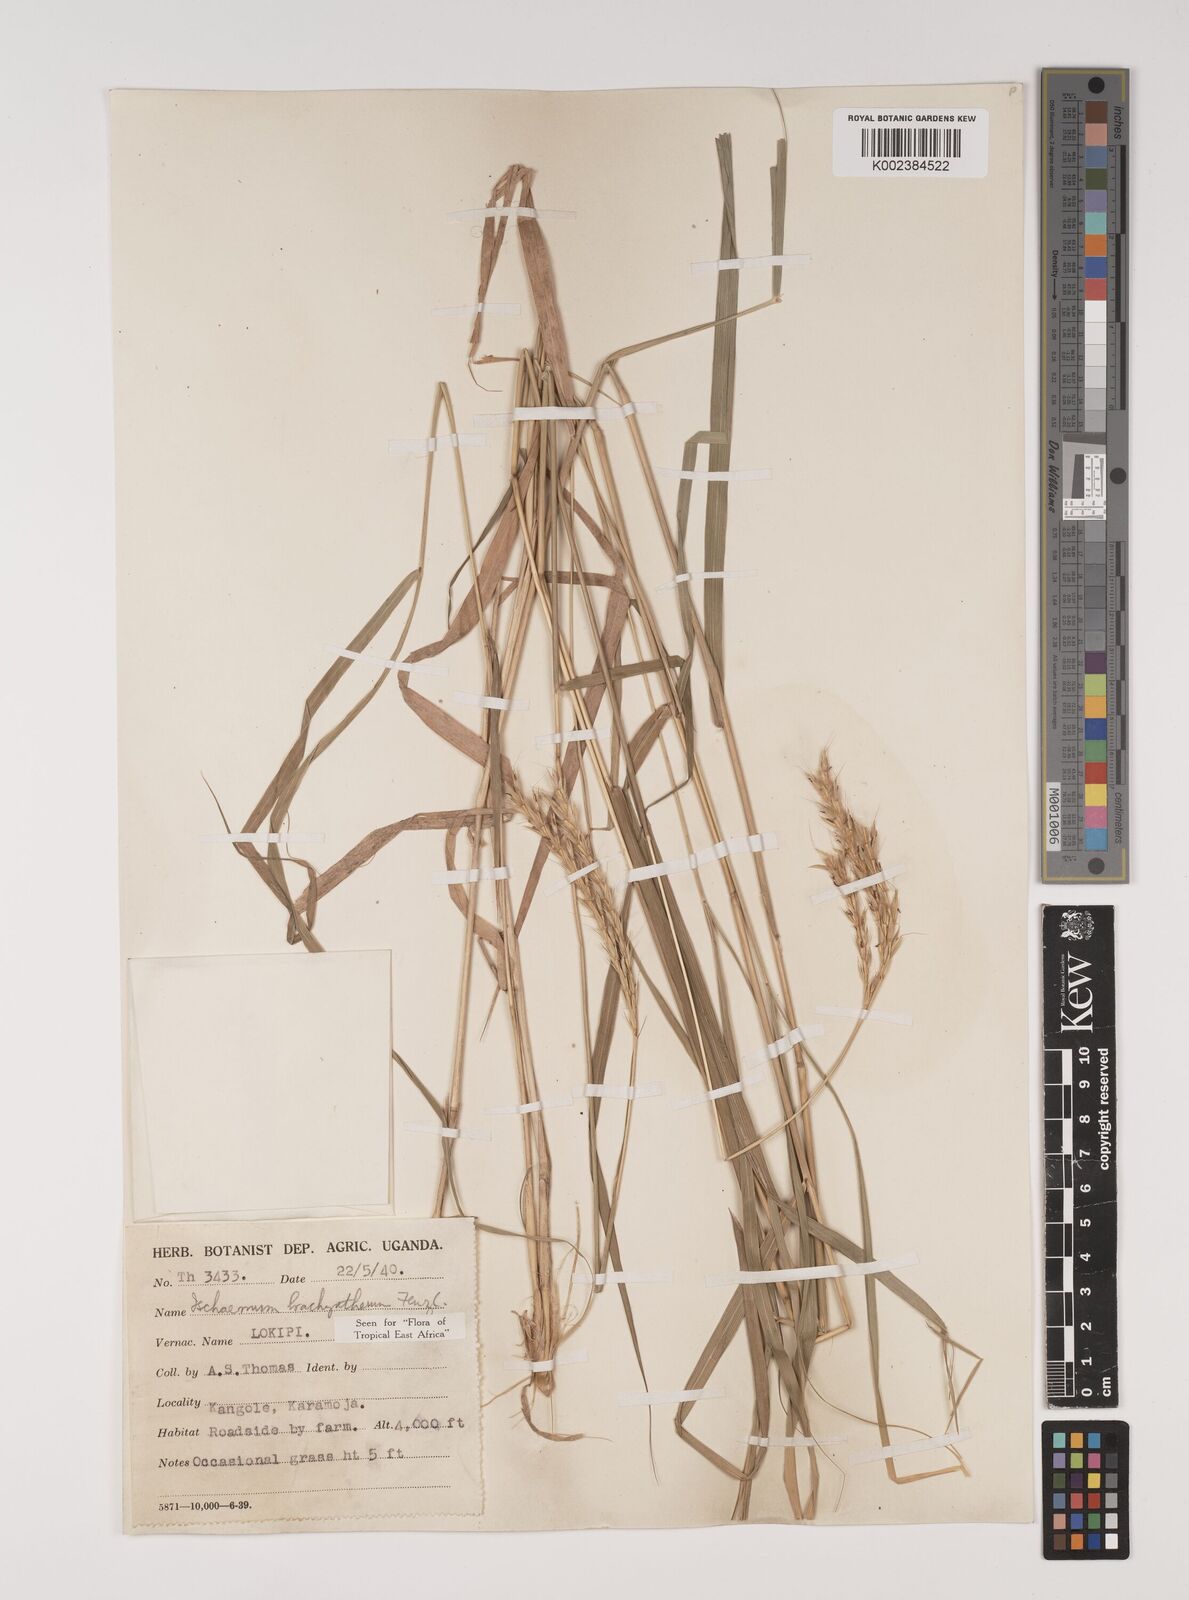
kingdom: Plantae
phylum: Tracheophyta
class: Liliopsida
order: Poales
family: Poaceae
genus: Ischaemum
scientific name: Ischaemum afrum
